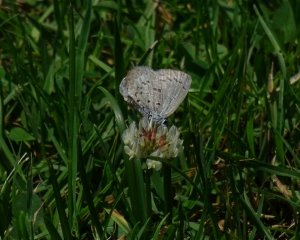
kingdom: Animalia
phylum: Arthropoda
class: Insecta
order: Lepidoptera
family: Lycaenidae
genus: Celastrina
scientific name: Celastrina serotina
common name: Cherry Gall Azure
